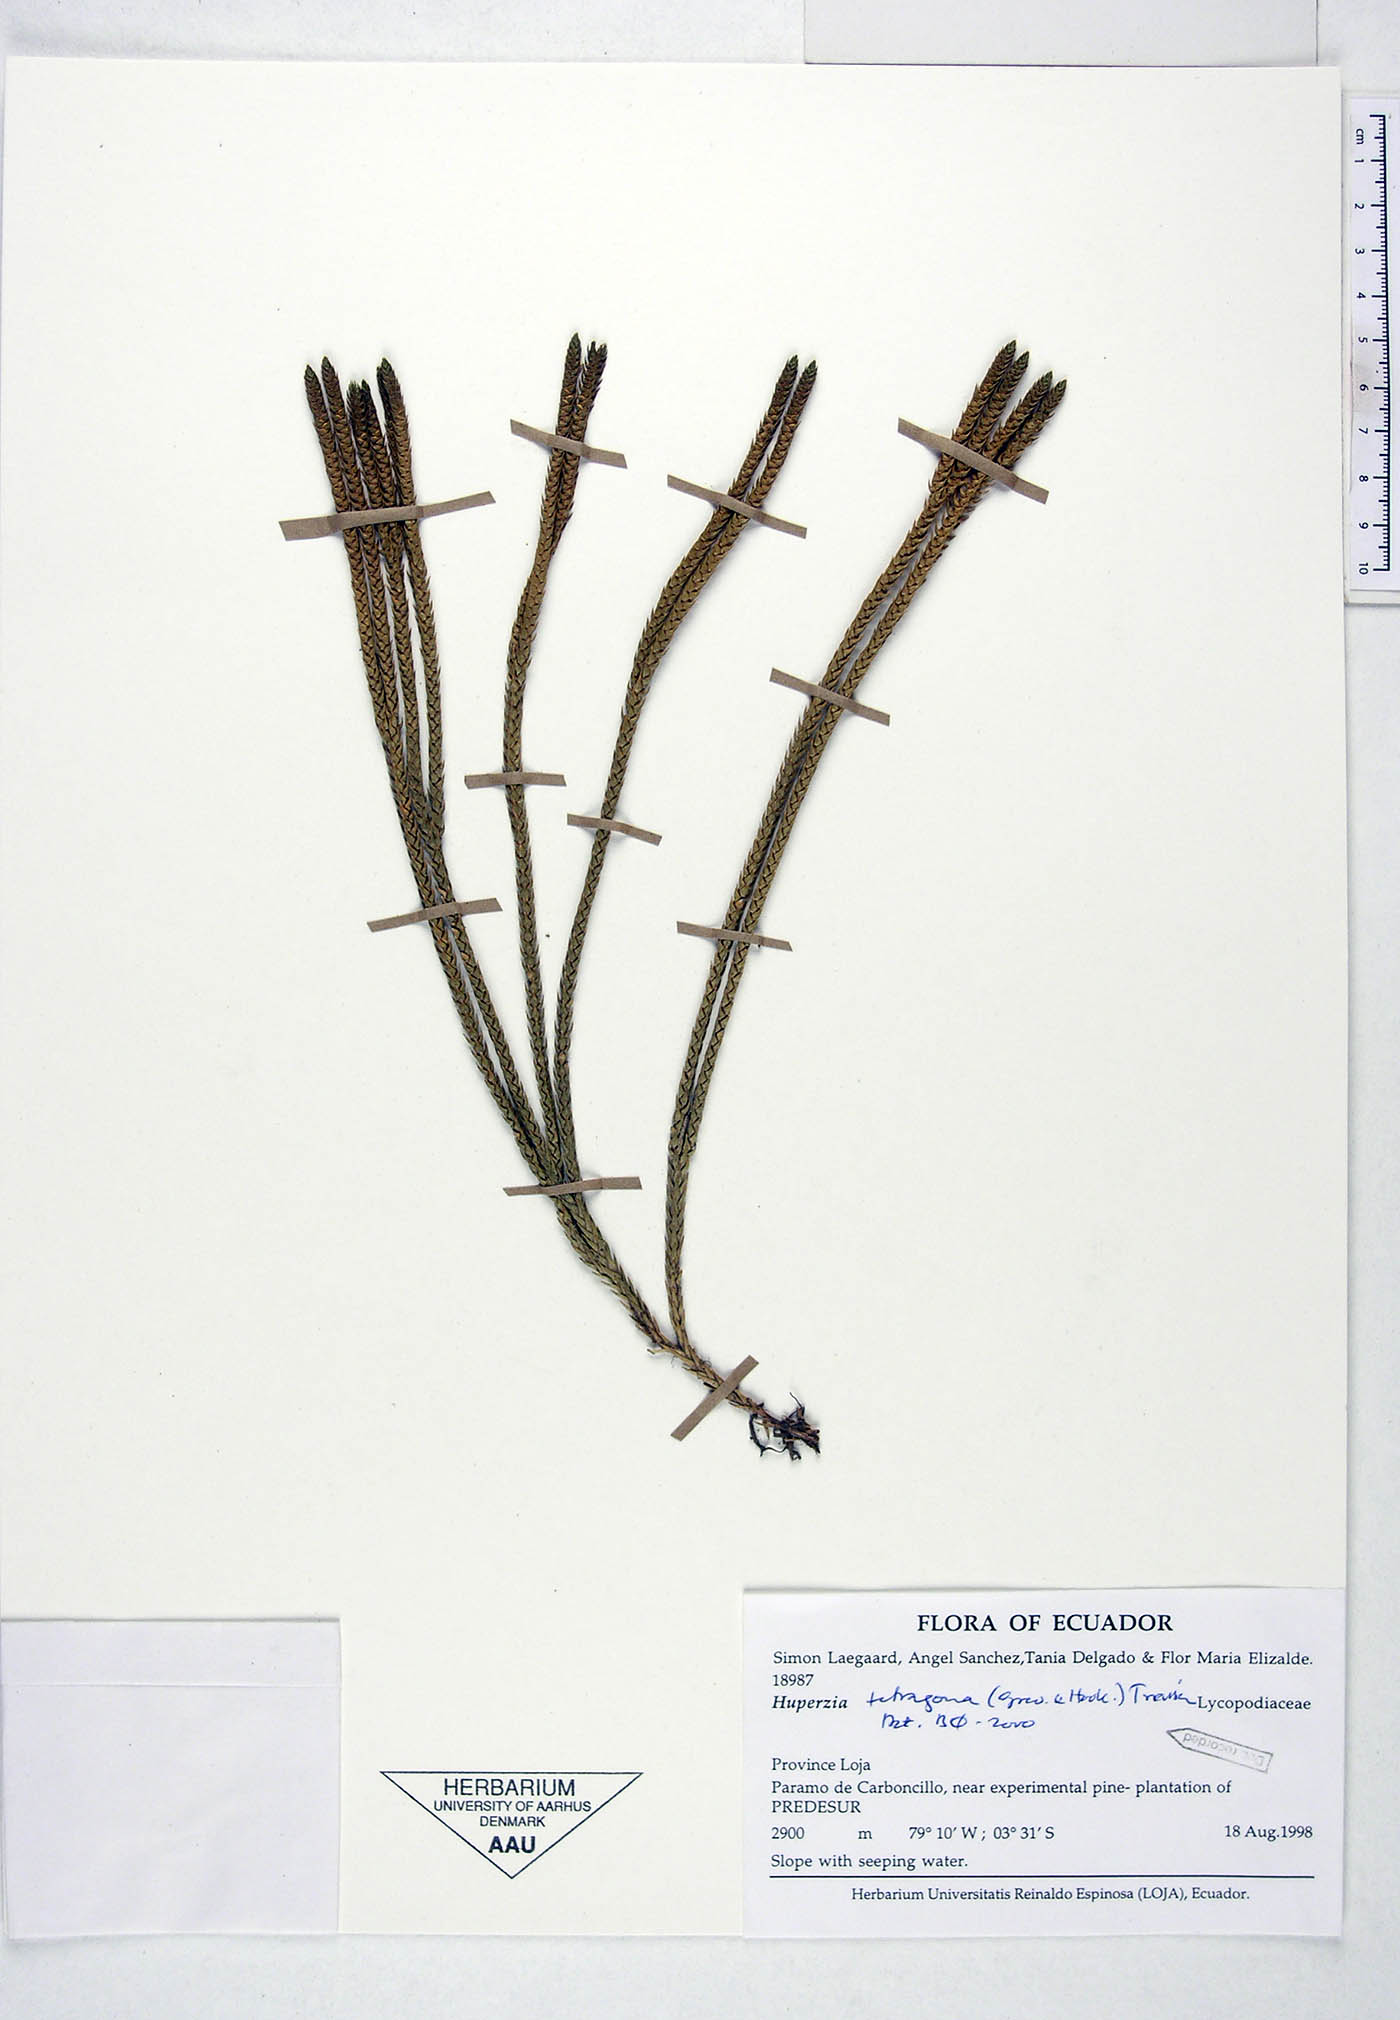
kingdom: Plantae
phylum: Tracheophyta
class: Lycopodiopsida
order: Lycopodiales
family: Lycopodiaceae
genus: Phlegmariurus
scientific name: Phlegmariurus tetragonus
